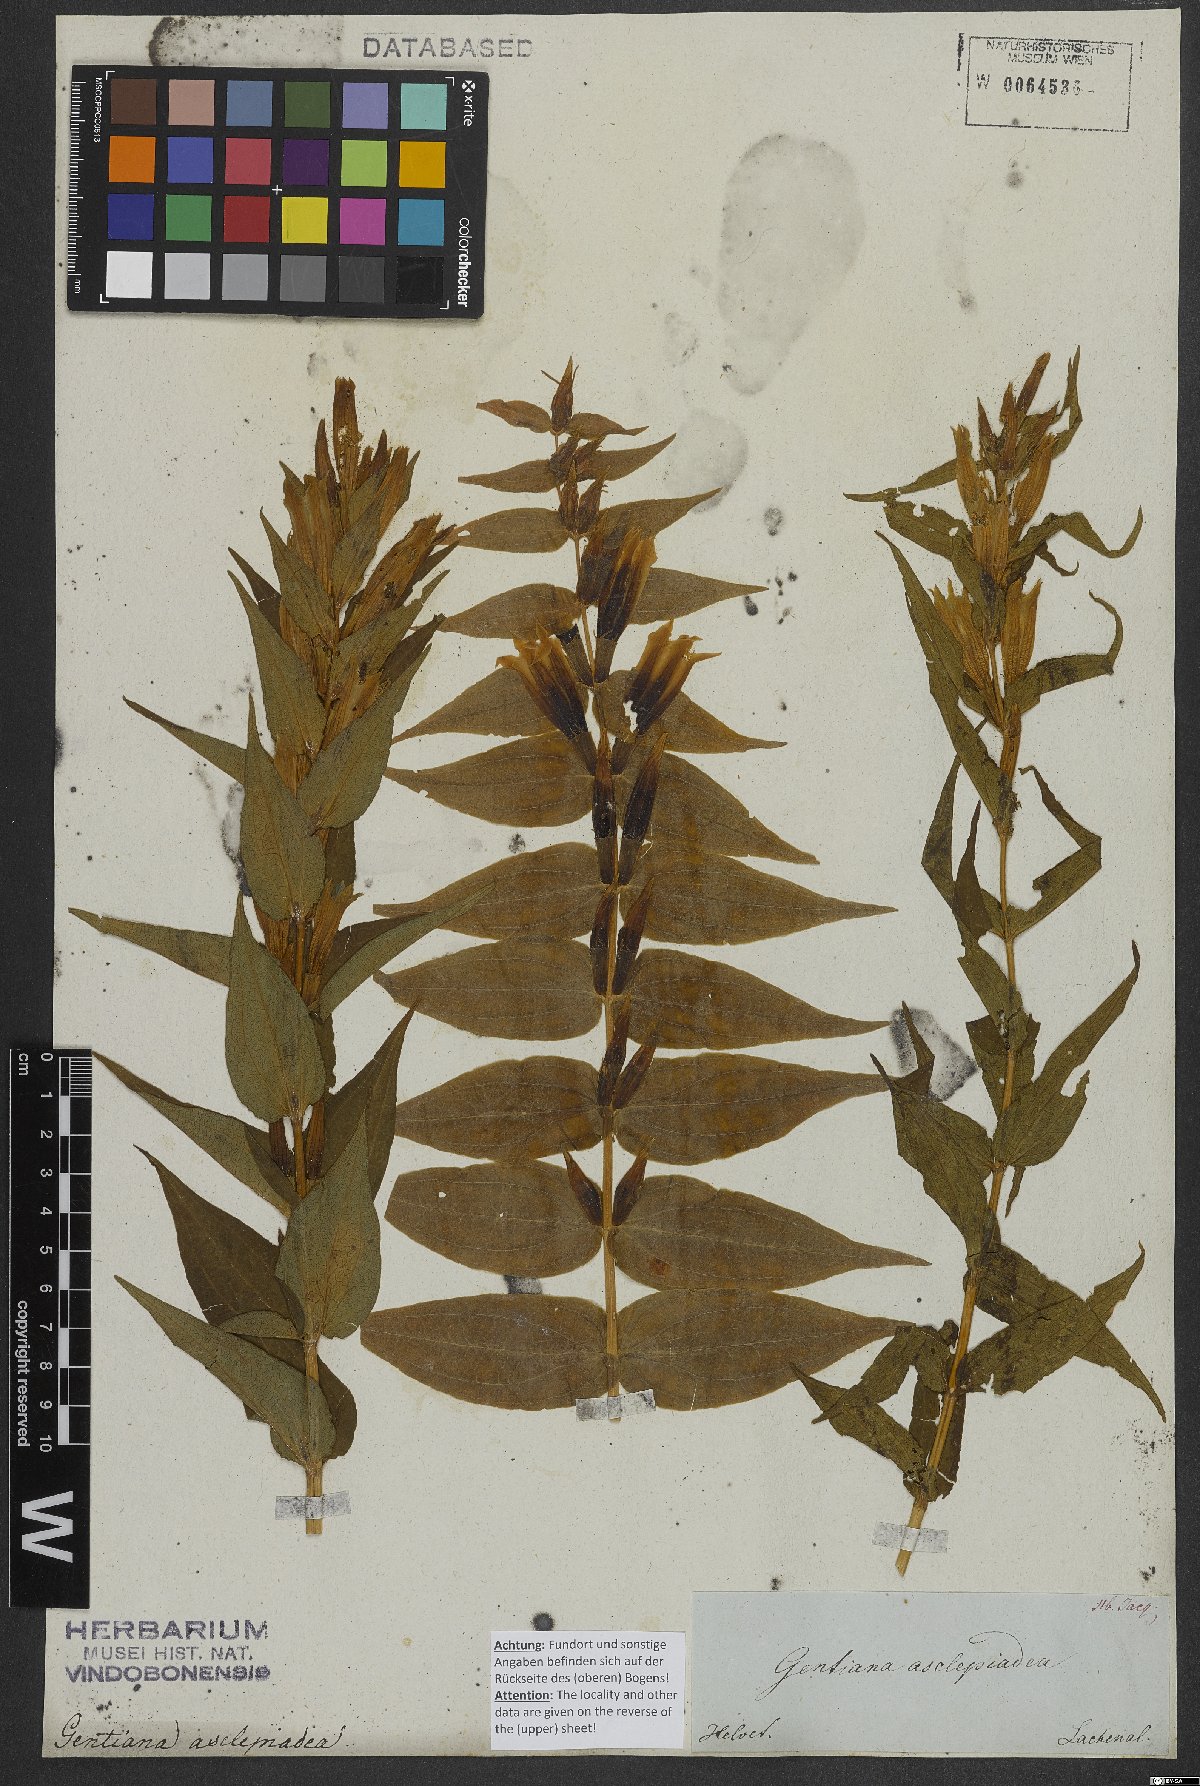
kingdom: Plantae
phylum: Tracheophyta
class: Magnoliopsida
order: Gentianales
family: Gentianaceae
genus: Gentiana
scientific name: Gentiana asclepiadea
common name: Willow gentian
